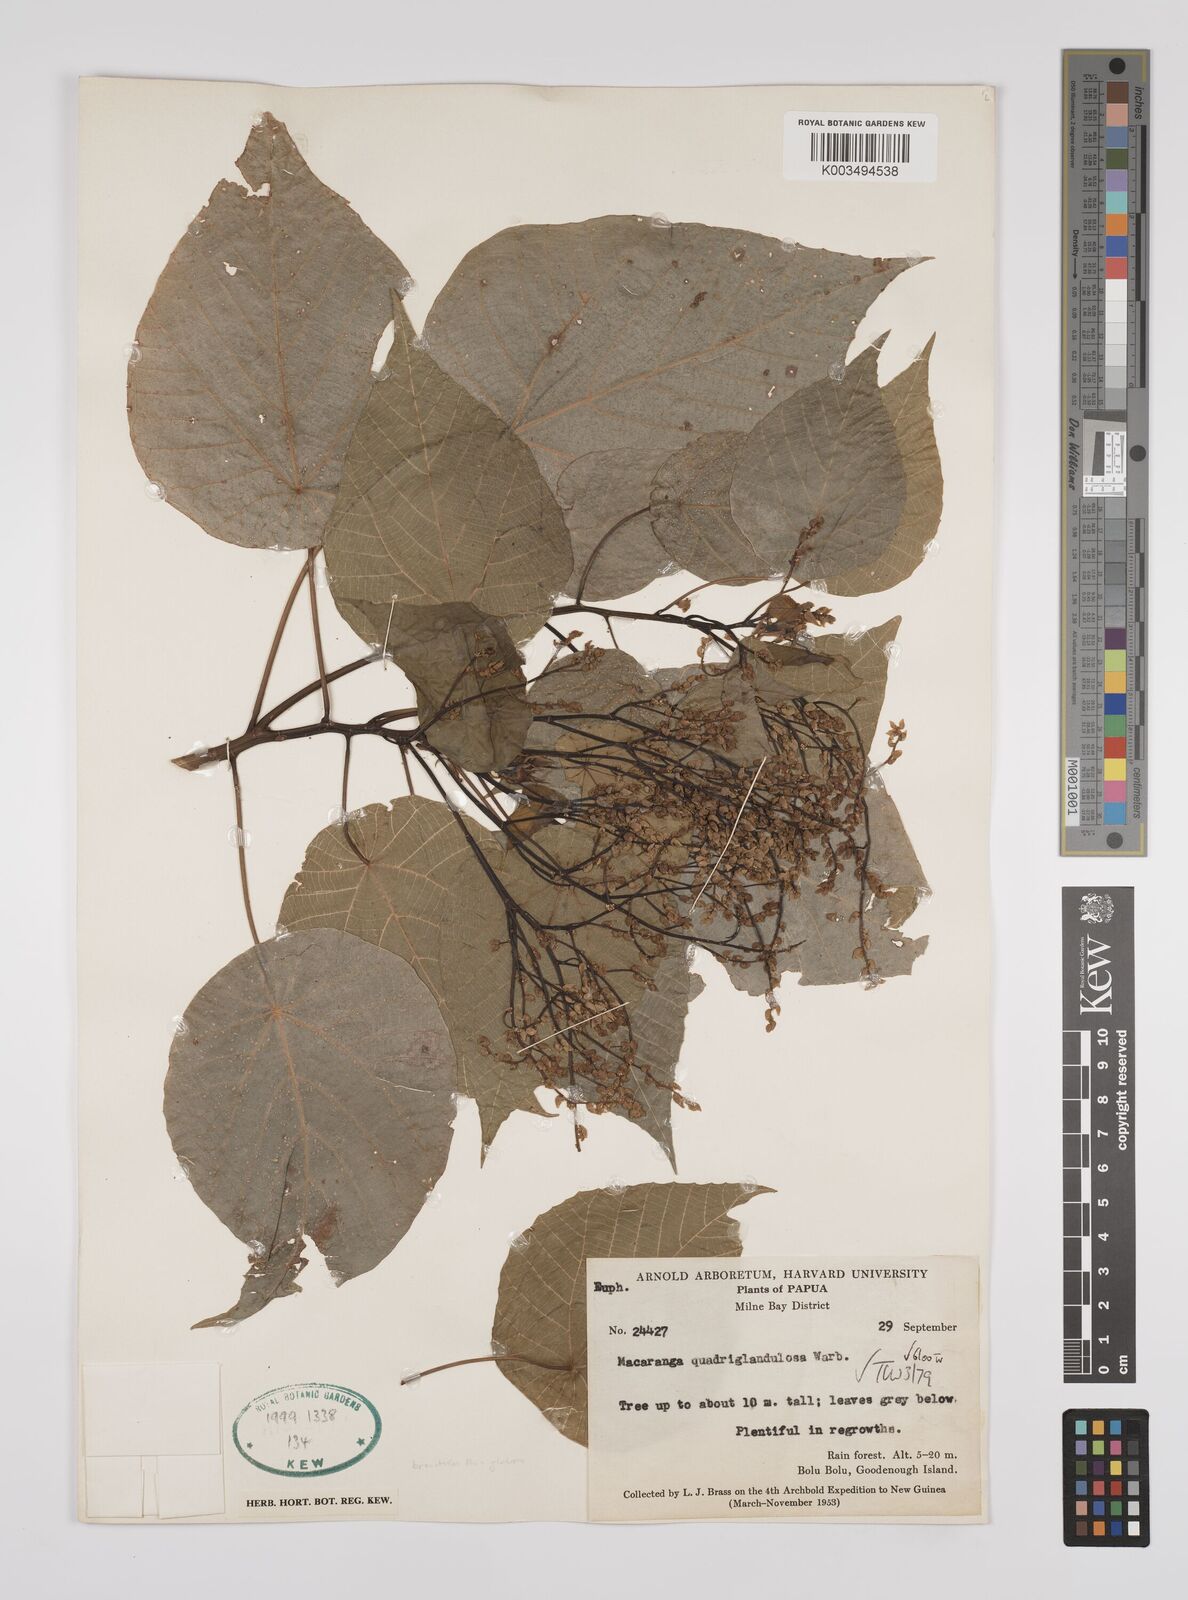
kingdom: Plantae
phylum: Tracheophyta
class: Magnoliopsida
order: Malpighiales
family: Euphorbiaceae
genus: Macaranga
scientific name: Macaranga quadriglandulosa
